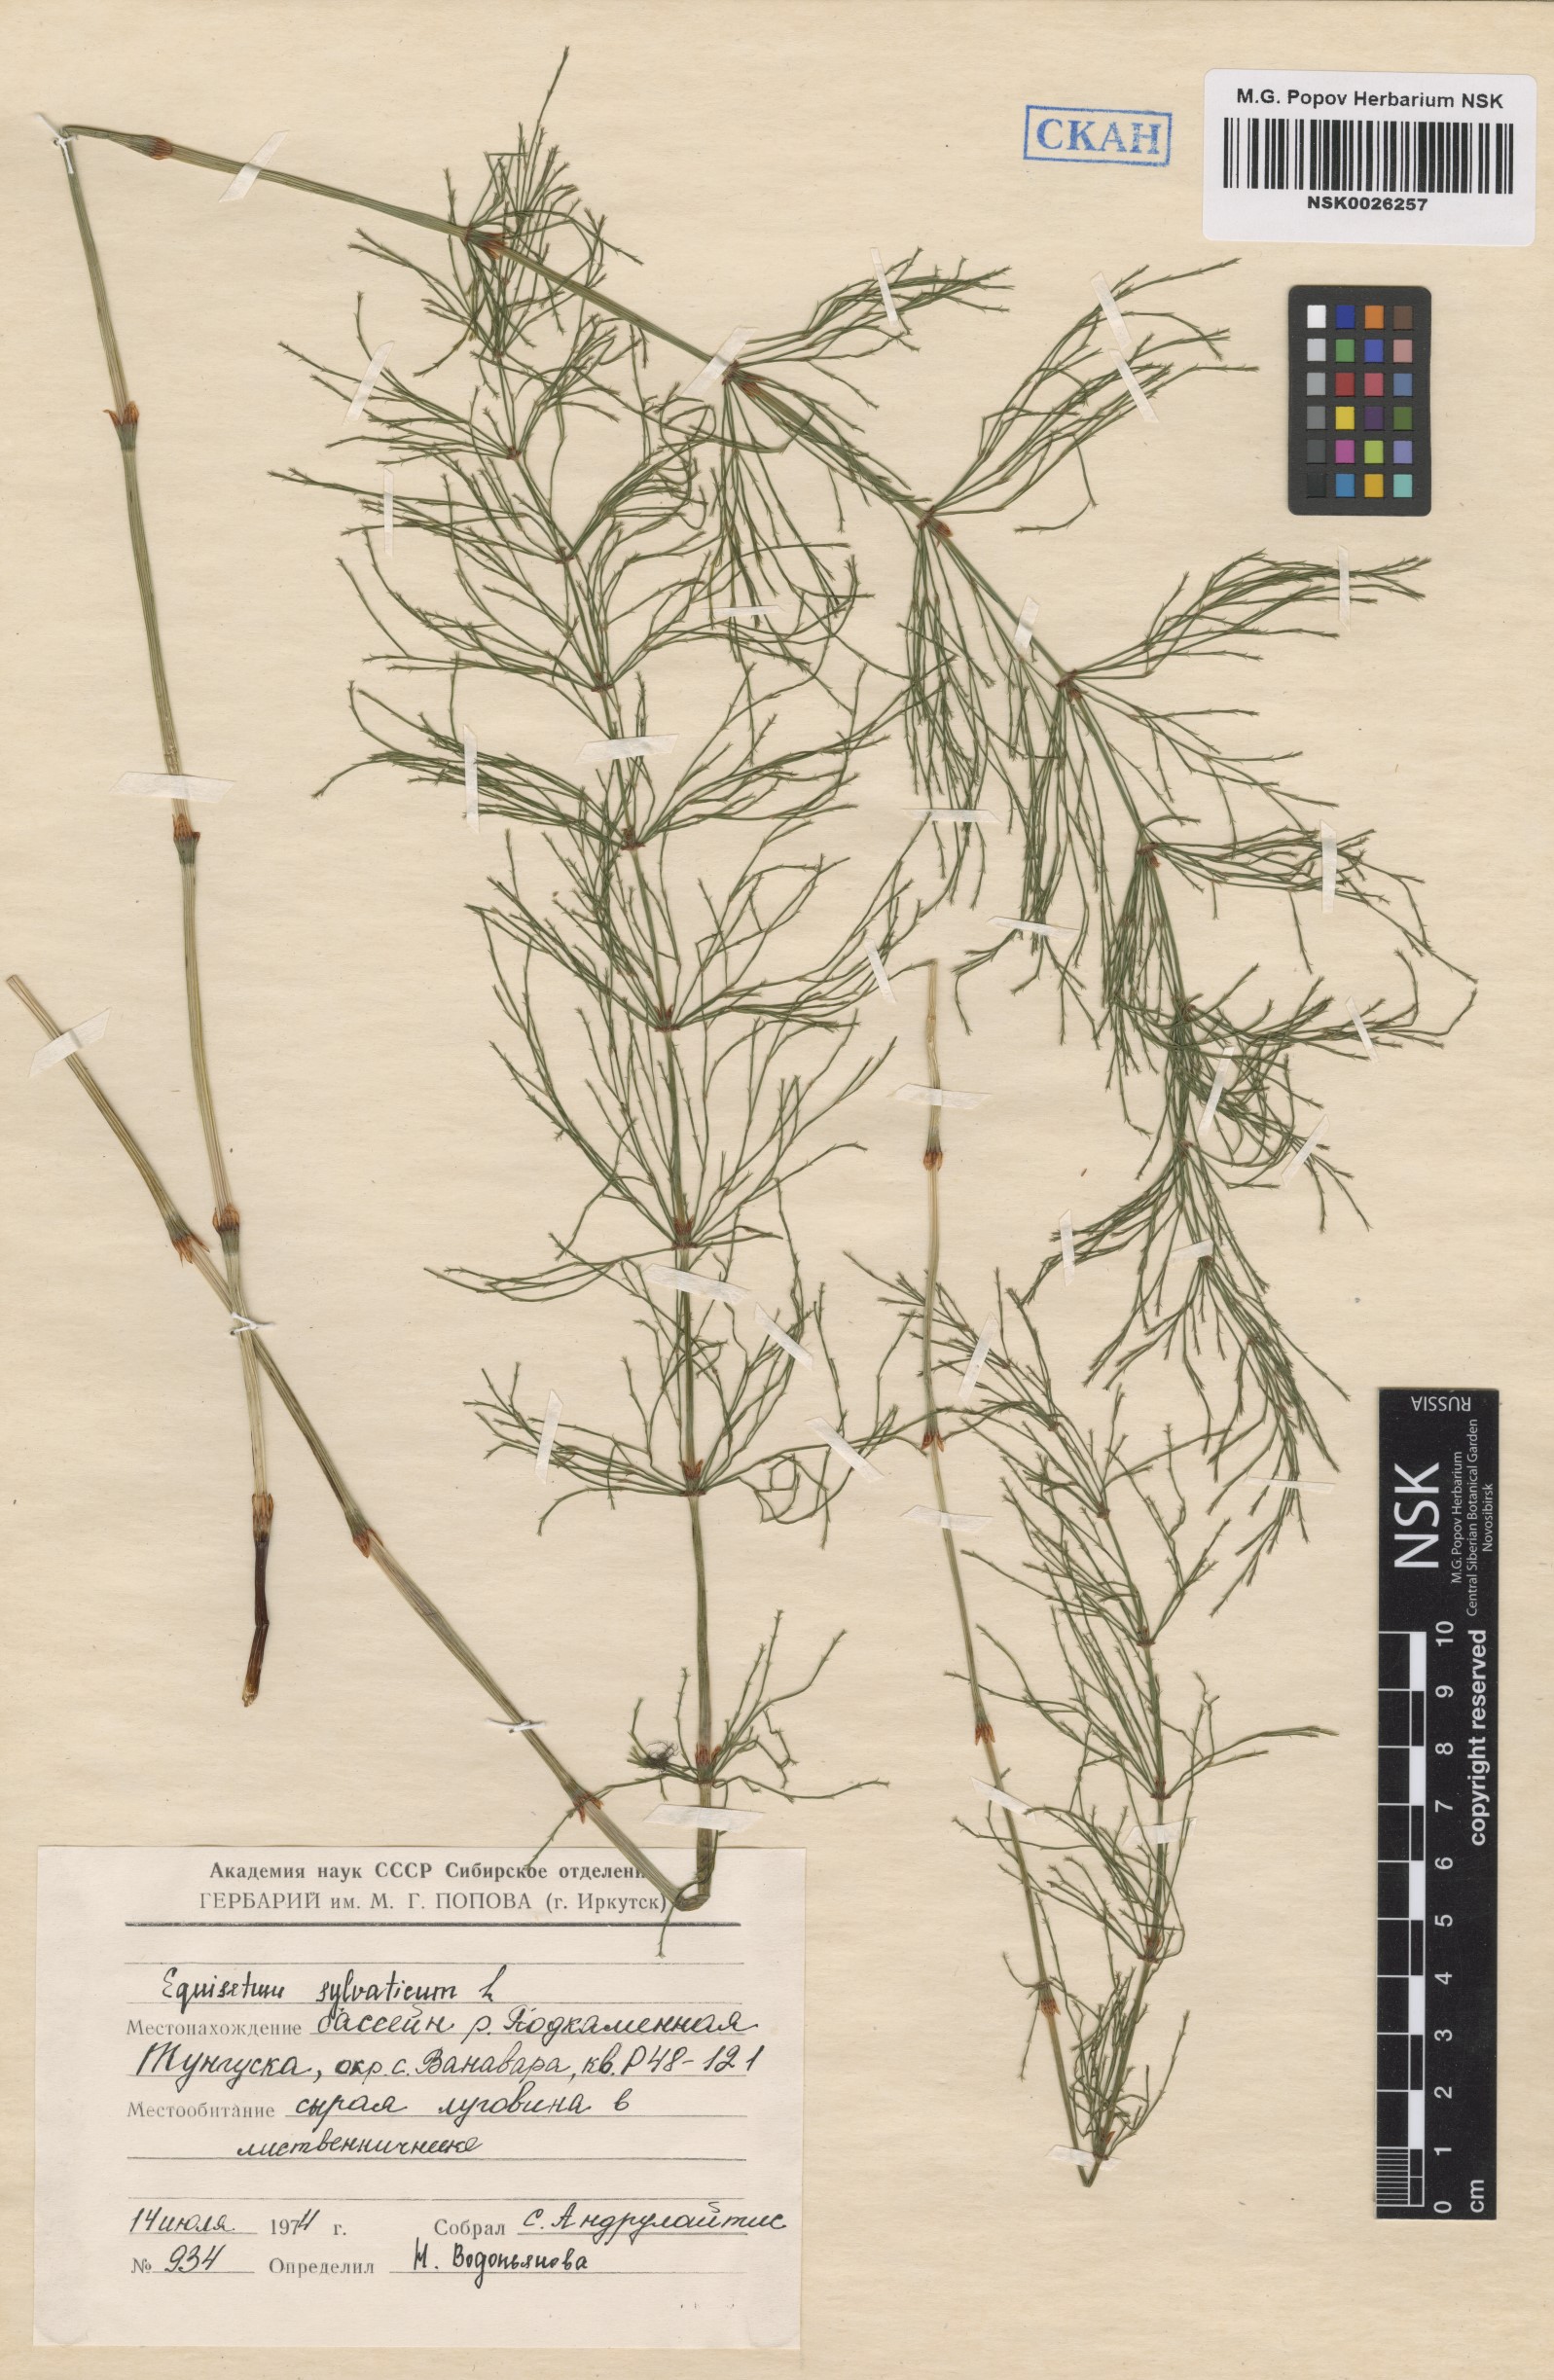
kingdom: Plantae
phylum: Tracheophyta
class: Polypodiopsida
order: Equisetales
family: Equisetaceae
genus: Equisetum
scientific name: Equisetum sylvaticum
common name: Wood horsetail
